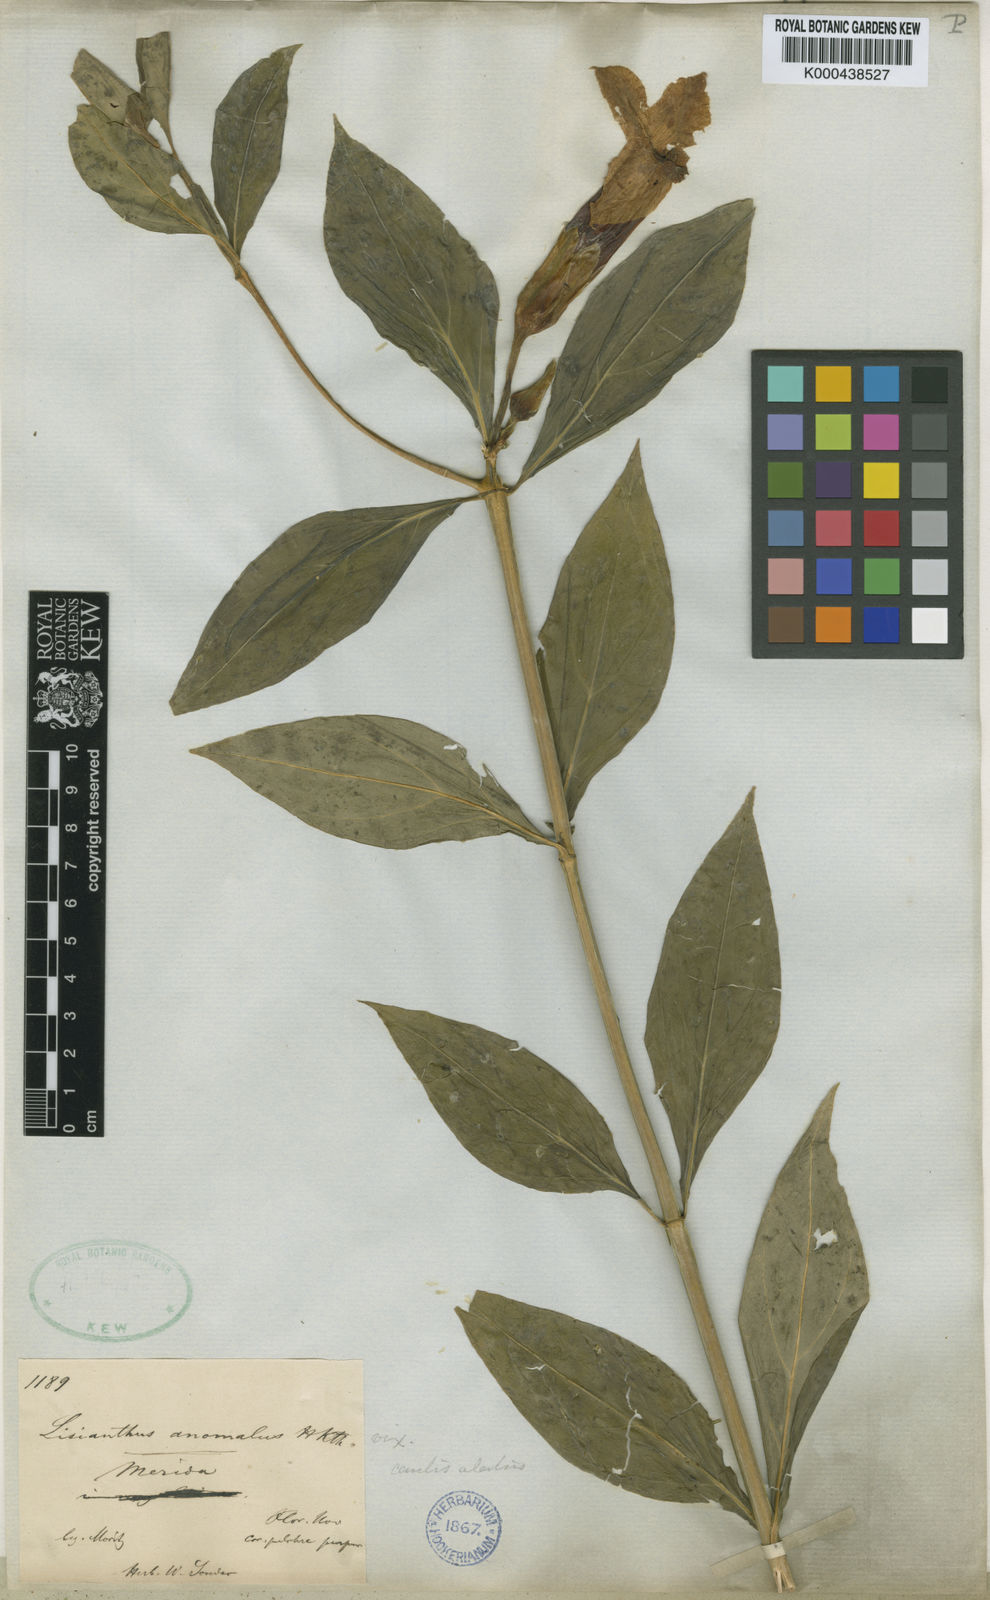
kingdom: Plantae
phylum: Tracheophyta
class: Magnoliopsida
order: Gentianales
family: Gentianaceae
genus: Coutoubea
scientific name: Coutoubea
